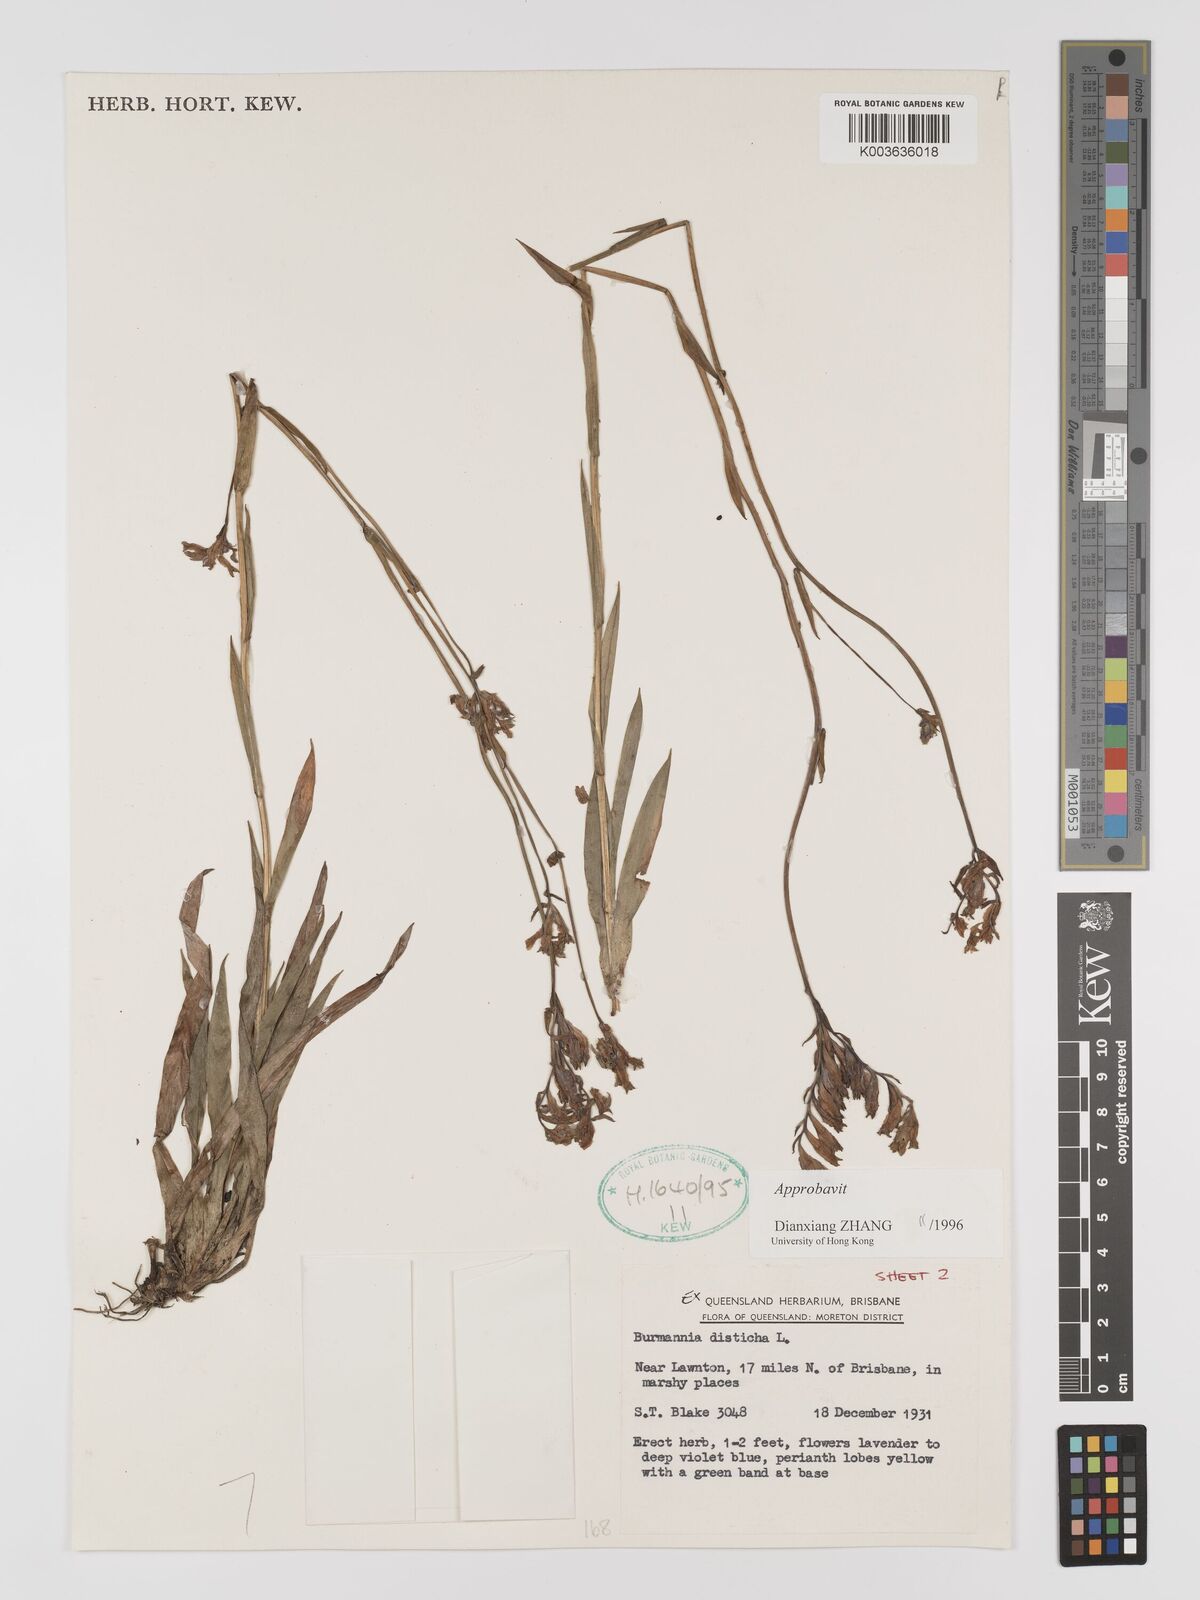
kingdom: Plantae
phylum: Tracheophyta
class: Liliopsida
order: Dioscoreales
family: Burmanniaceae
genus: Burmannia
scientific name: Burmannia disticha
